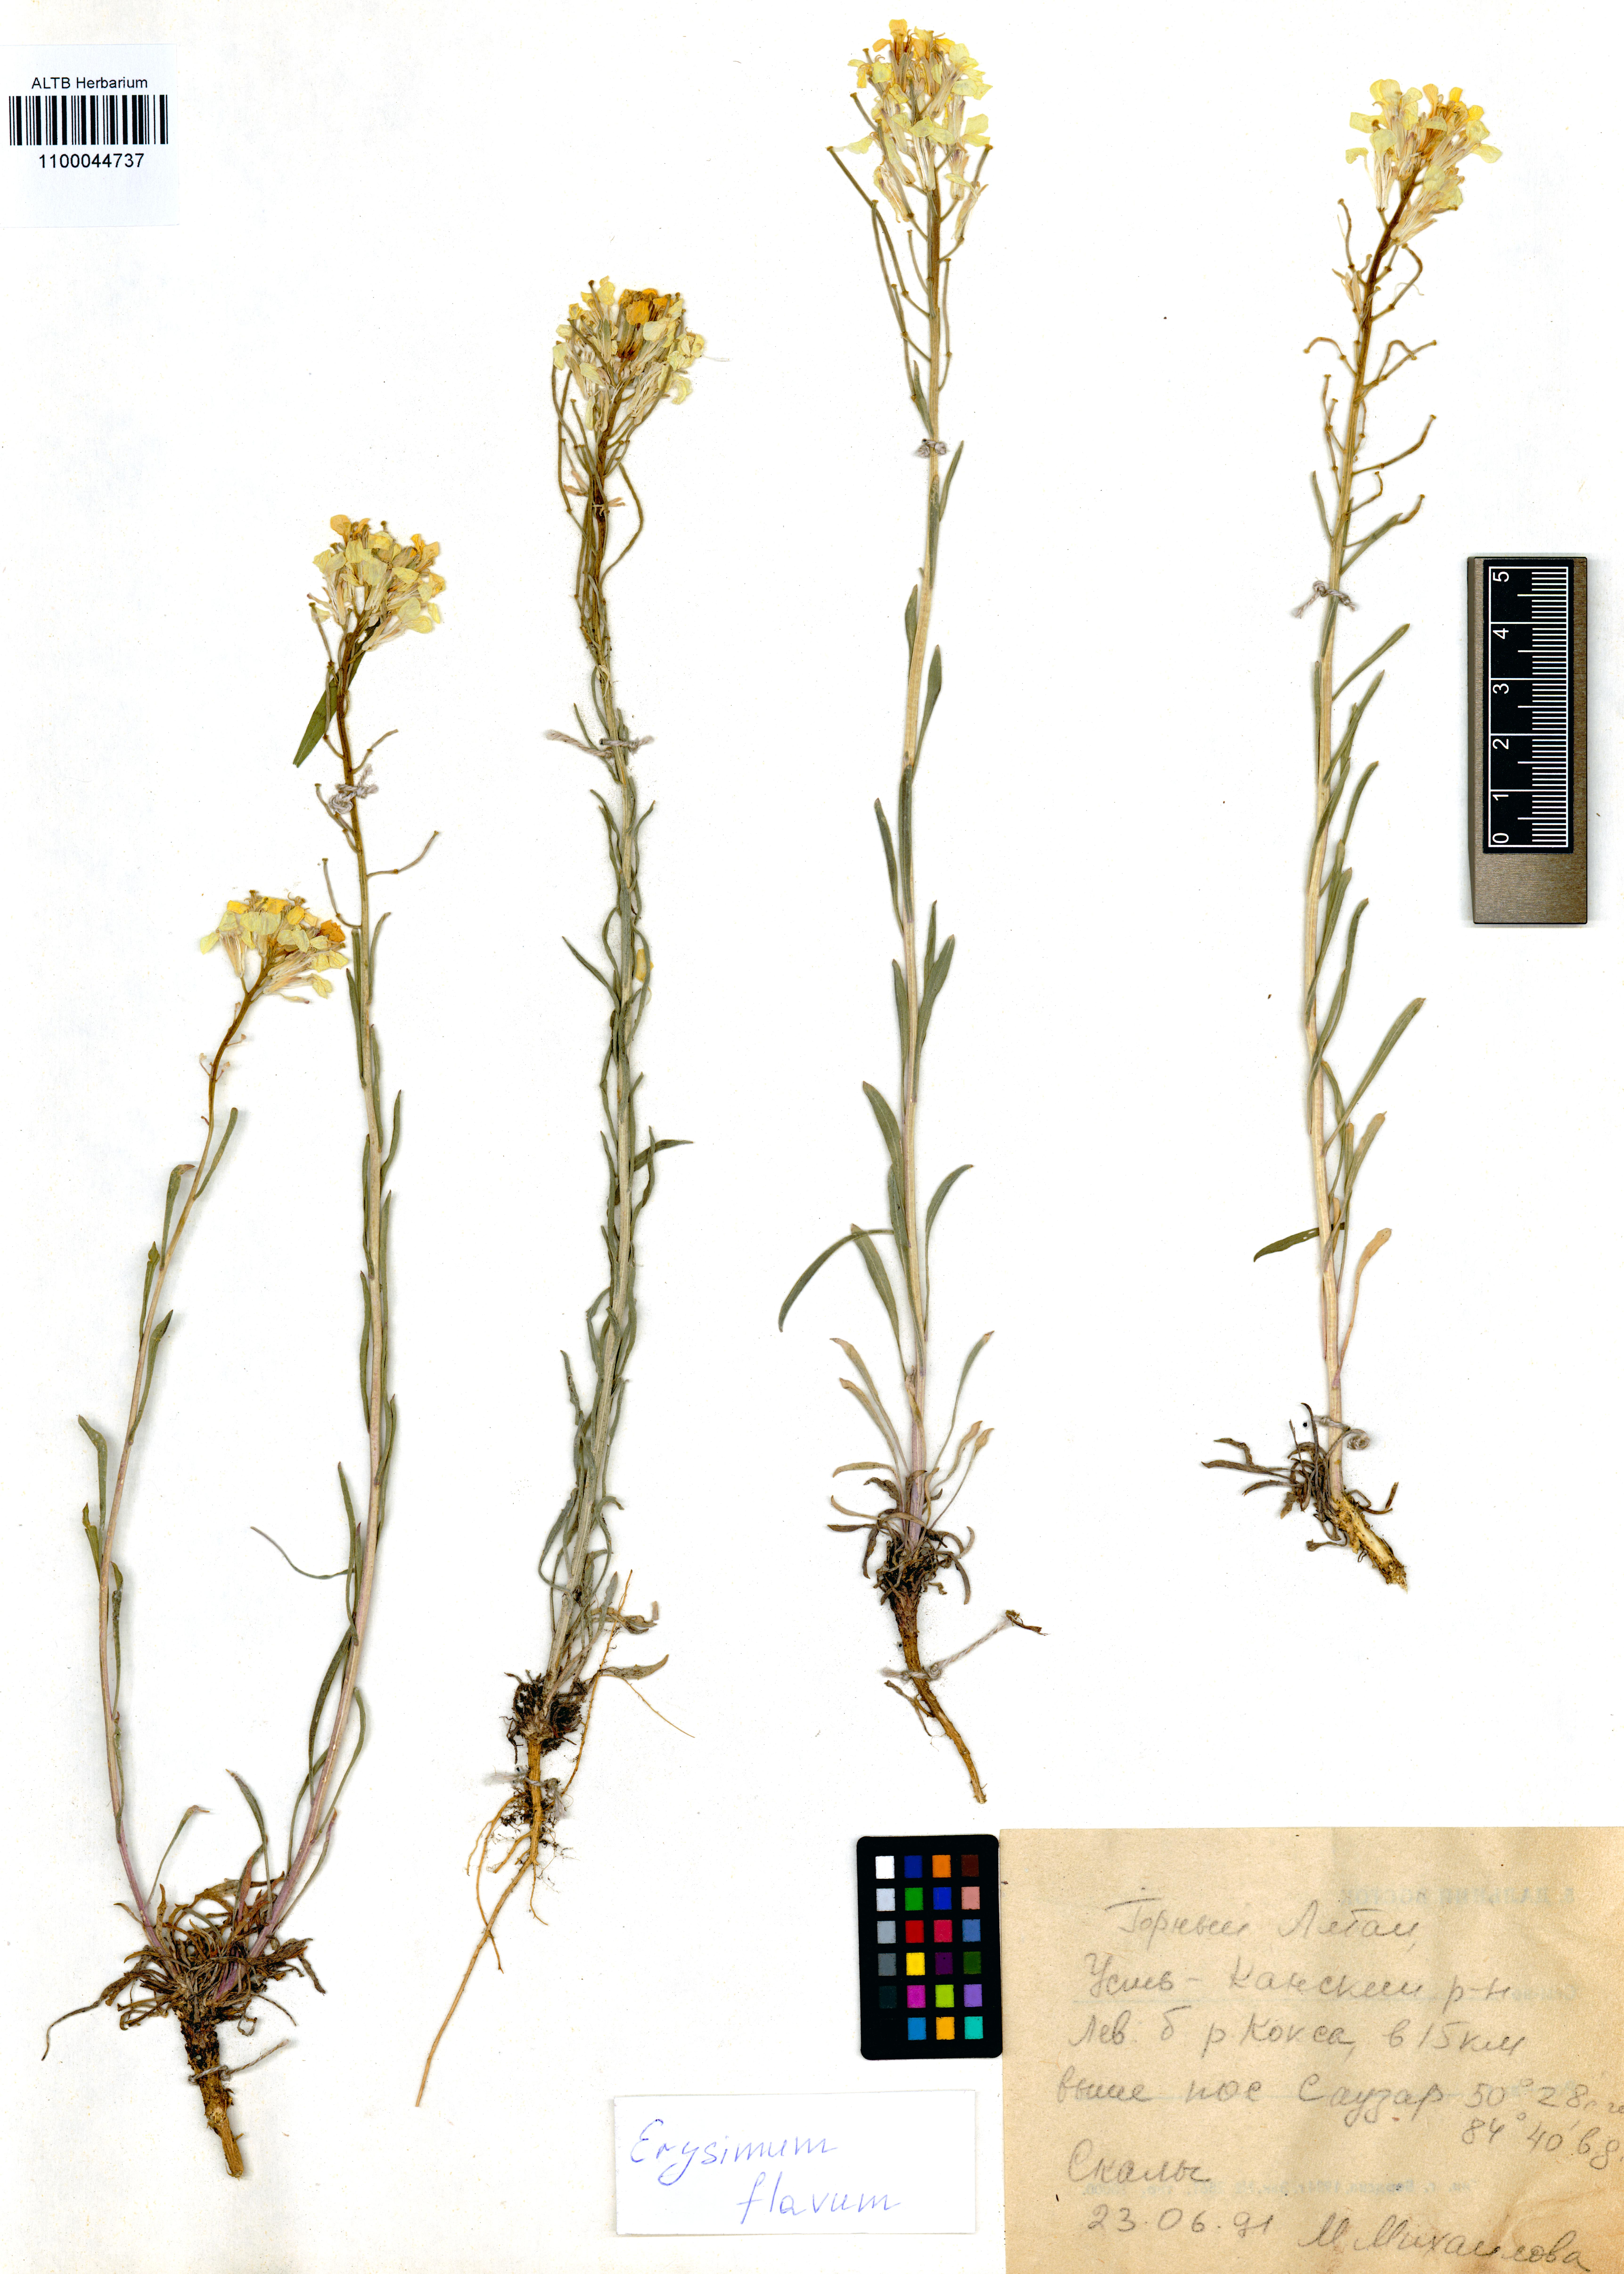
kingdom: Plantae
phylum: Tracheophyta
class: Magnoliopsida
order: Brassicales
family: Brassicaceae
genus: Erysimum
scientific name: Erysimum flavum
